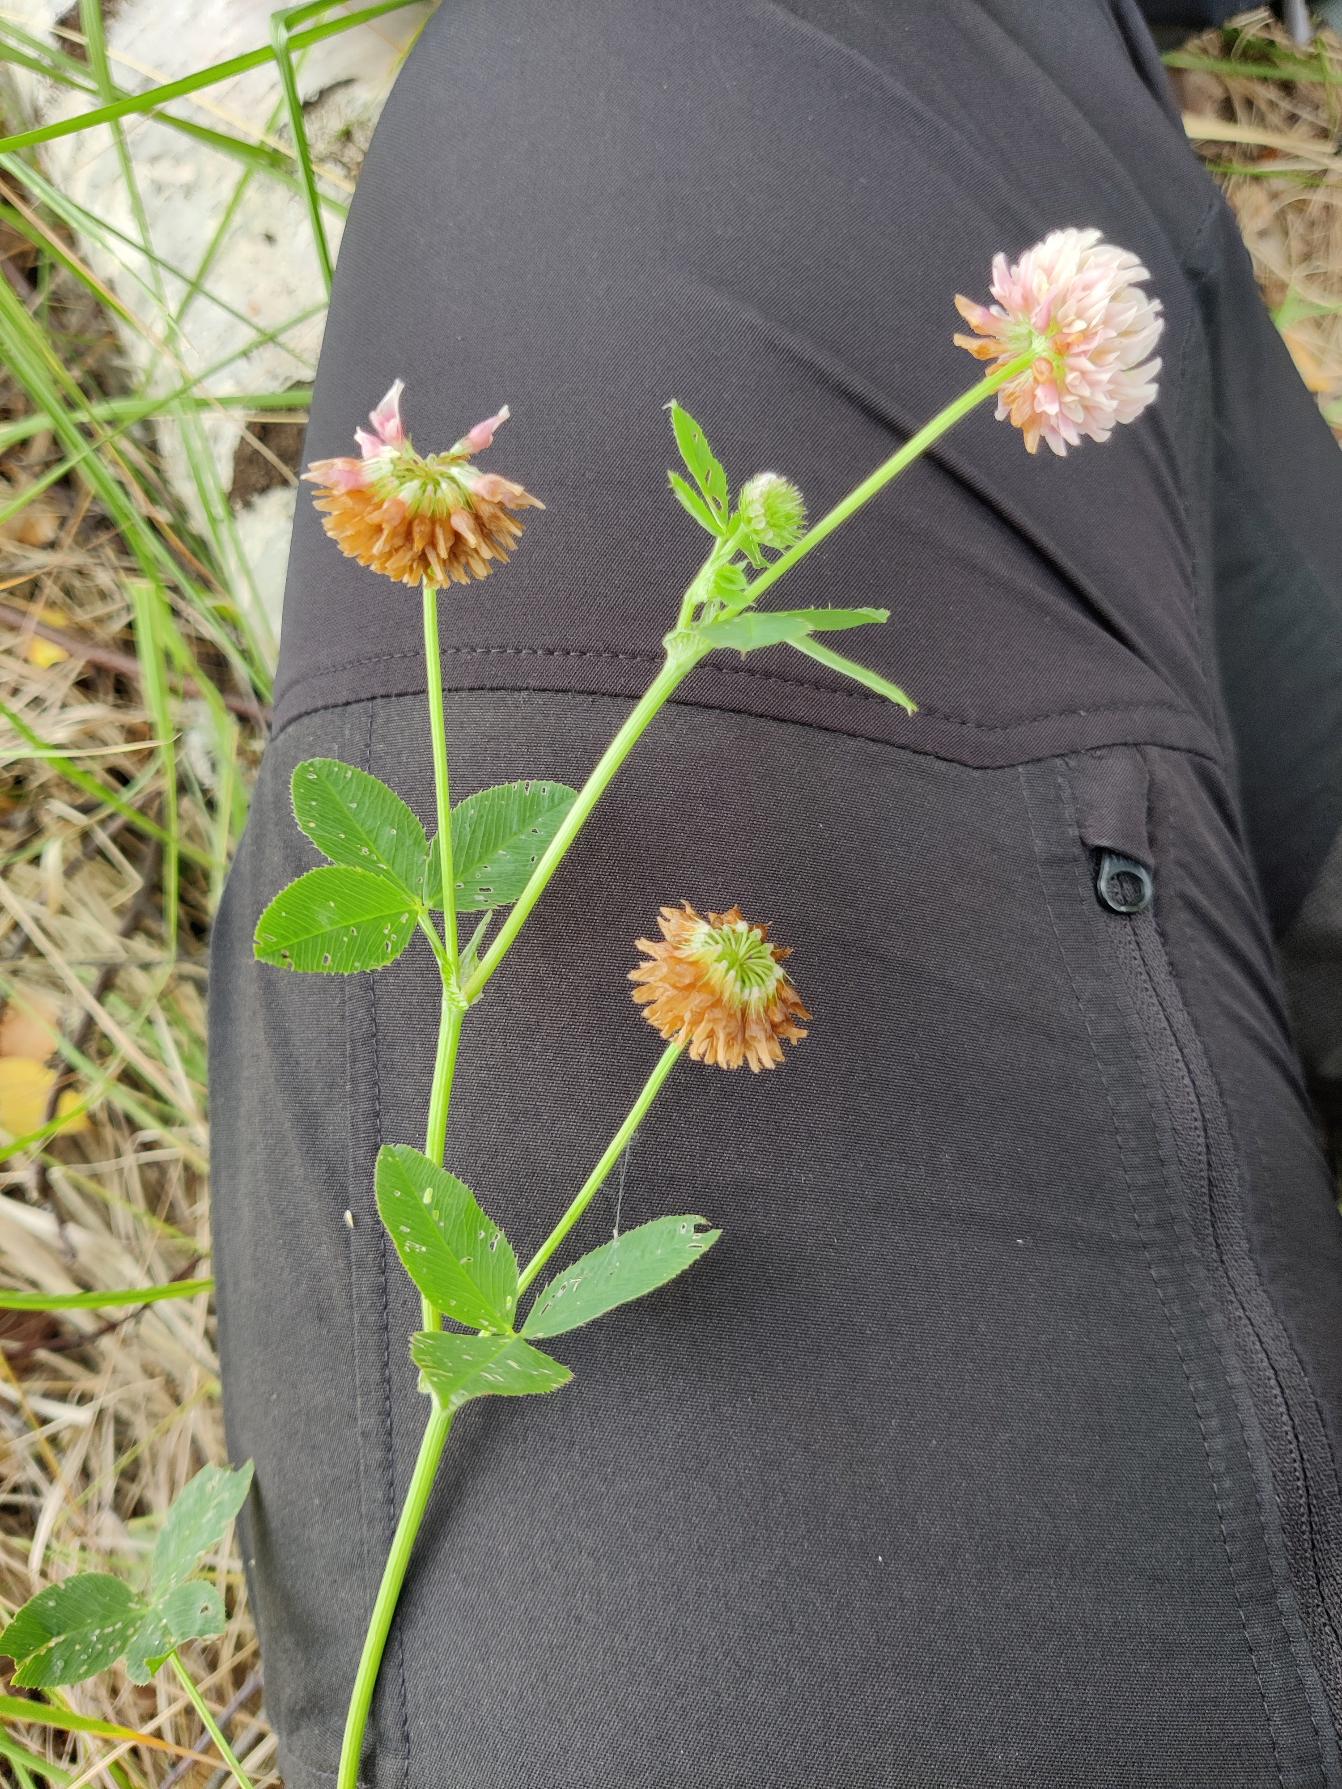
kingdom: Plantae
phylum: Tracheophyta
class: Magnoliopsida
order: Fabales
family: Fabaceae
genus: Trifolium
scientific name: Trifolium hybridum
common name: Alsike-kløver
